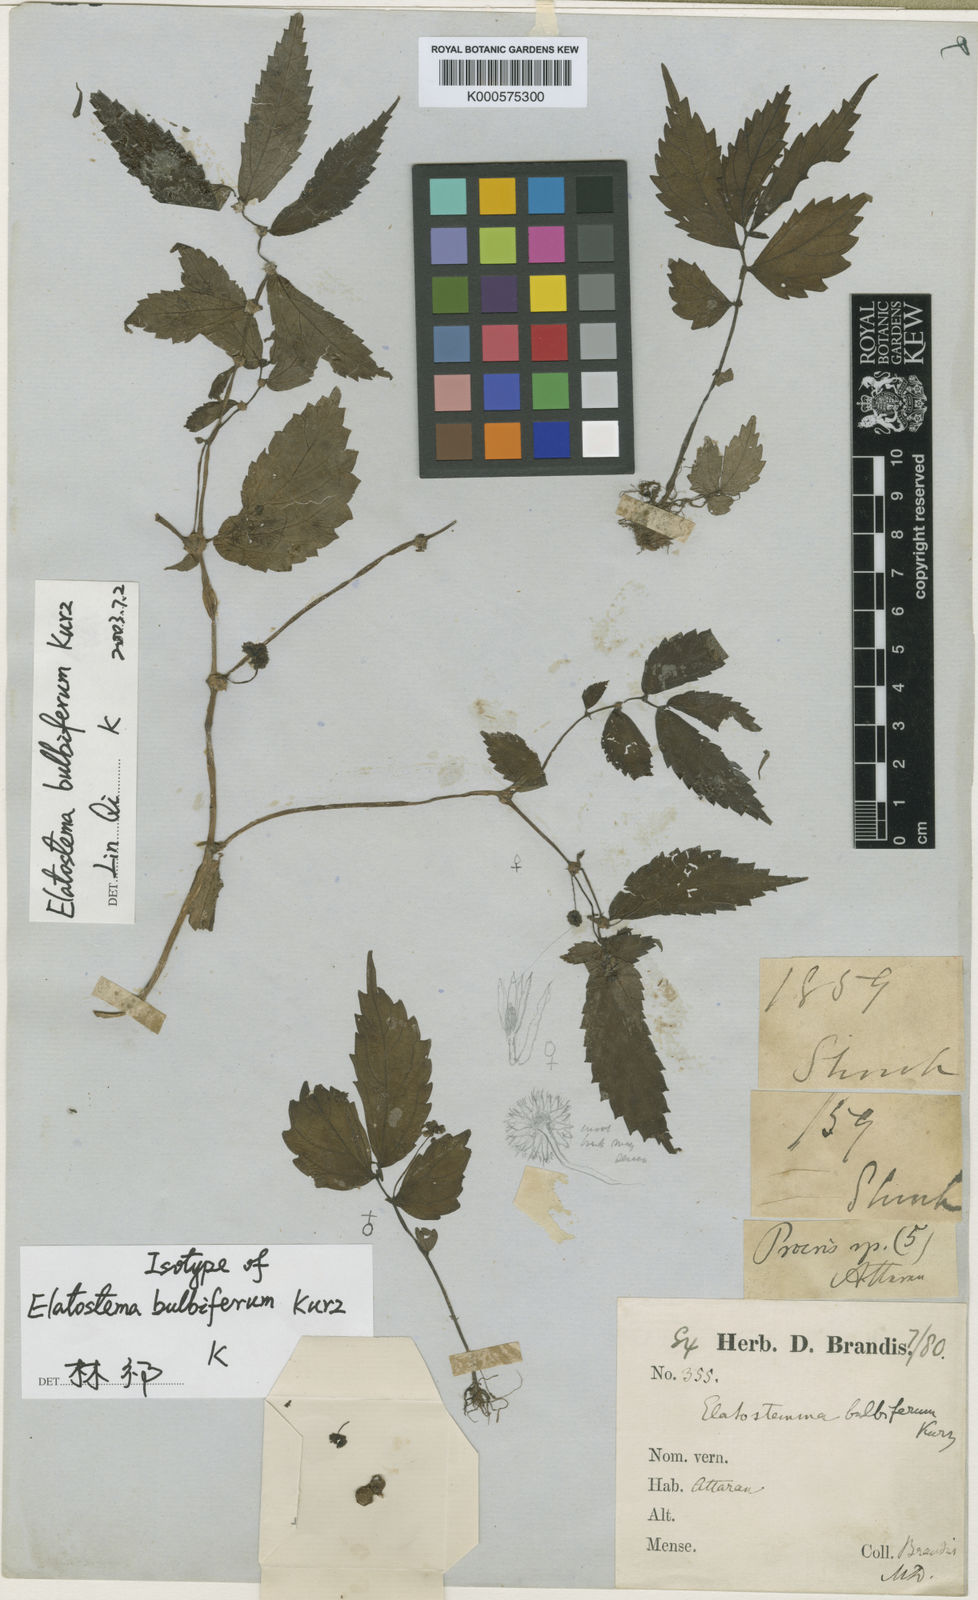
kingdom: Plantae
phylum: Tracheophyta
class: Magnoliopsida
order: Rosales
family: Urticaceae
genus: Elatostema
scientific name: Elatostema bulbiferum
